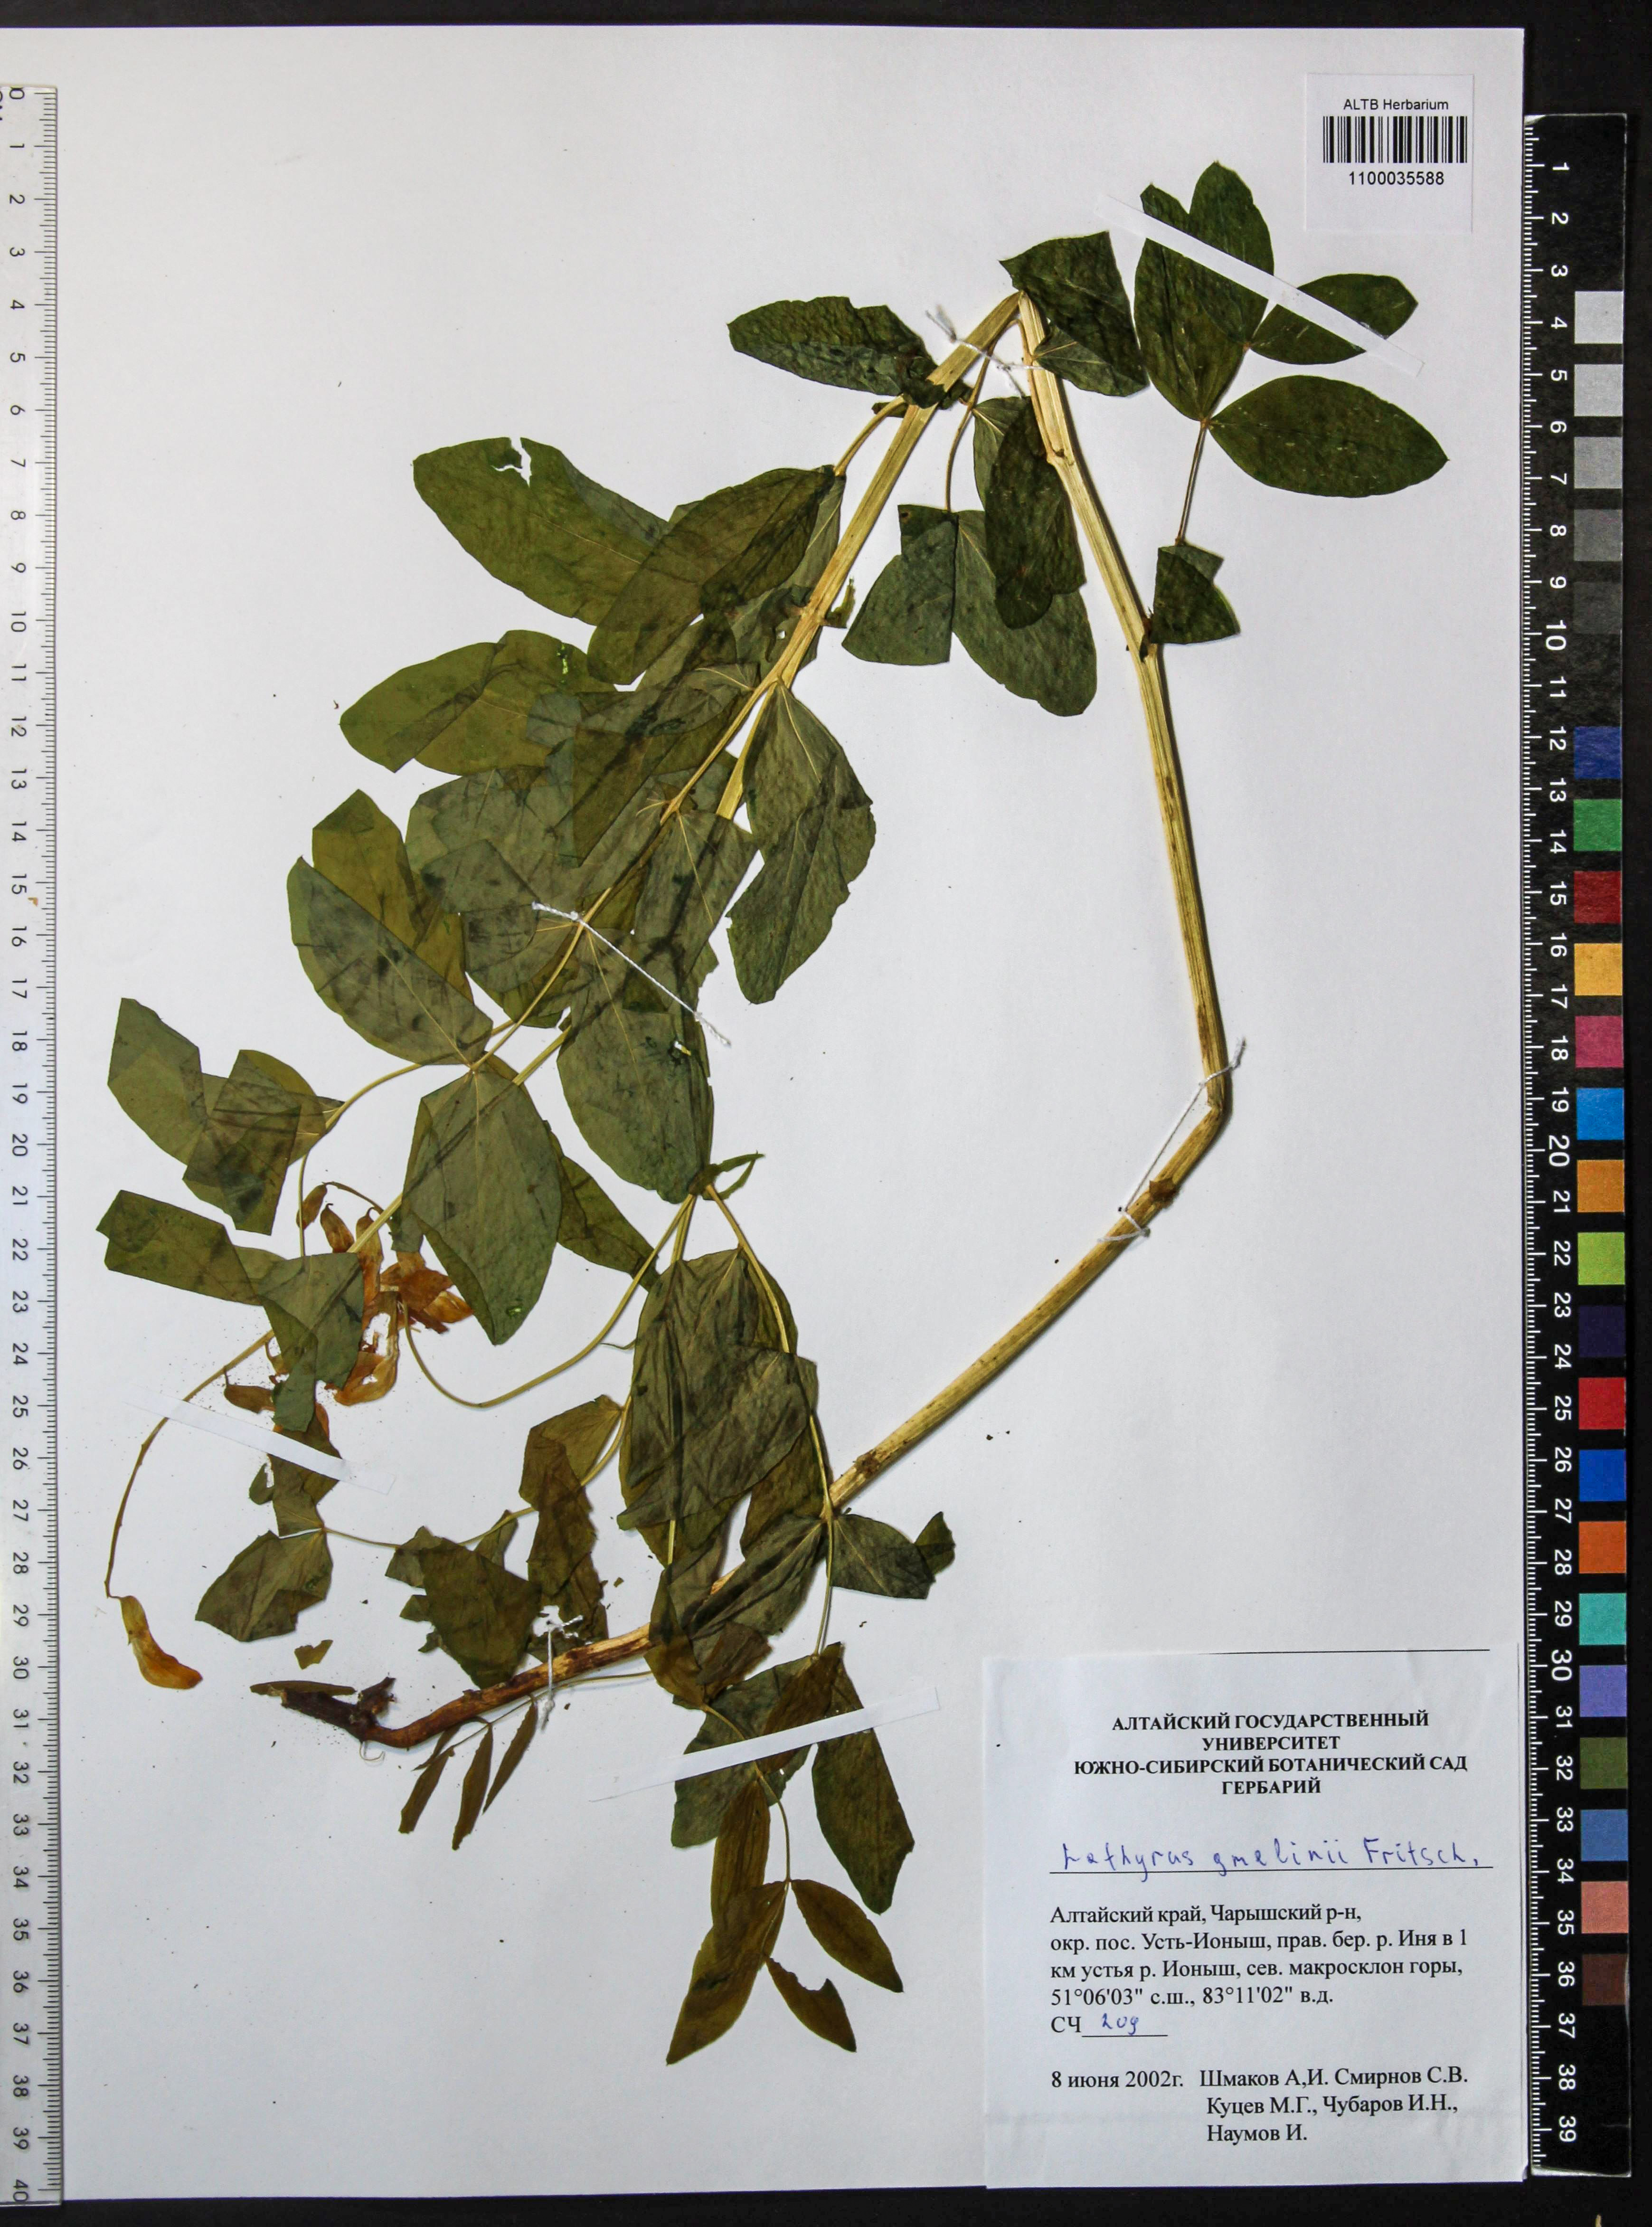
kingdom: Plantae
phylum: Tracheophyta
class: Magnoliopsida
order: Fabales
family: Fabaceae
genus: Lathyrus
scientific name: Lathyrus gmelinii
